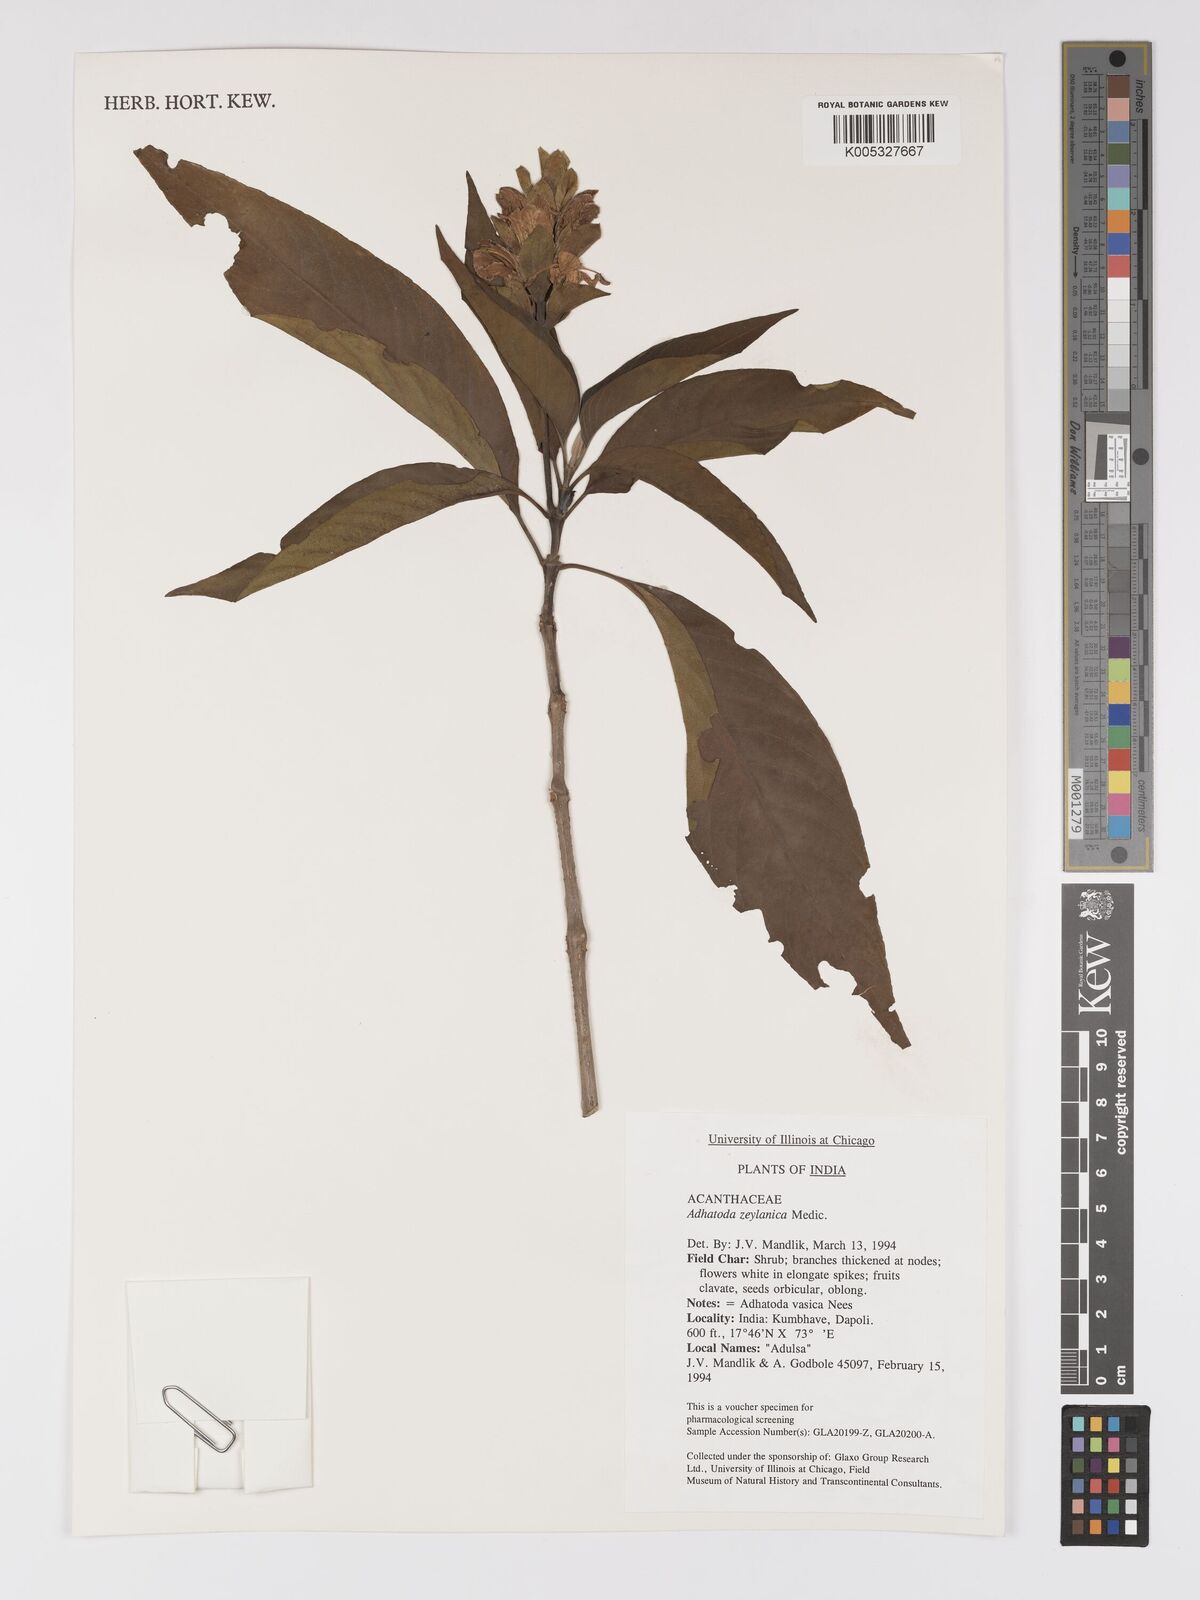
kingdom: Plantae
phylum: Tracheophyta
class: Magnoliopsida
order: Lamiales
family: Acanthaceae
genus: Ecbolium
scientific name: Ecbolium ligustrinum
